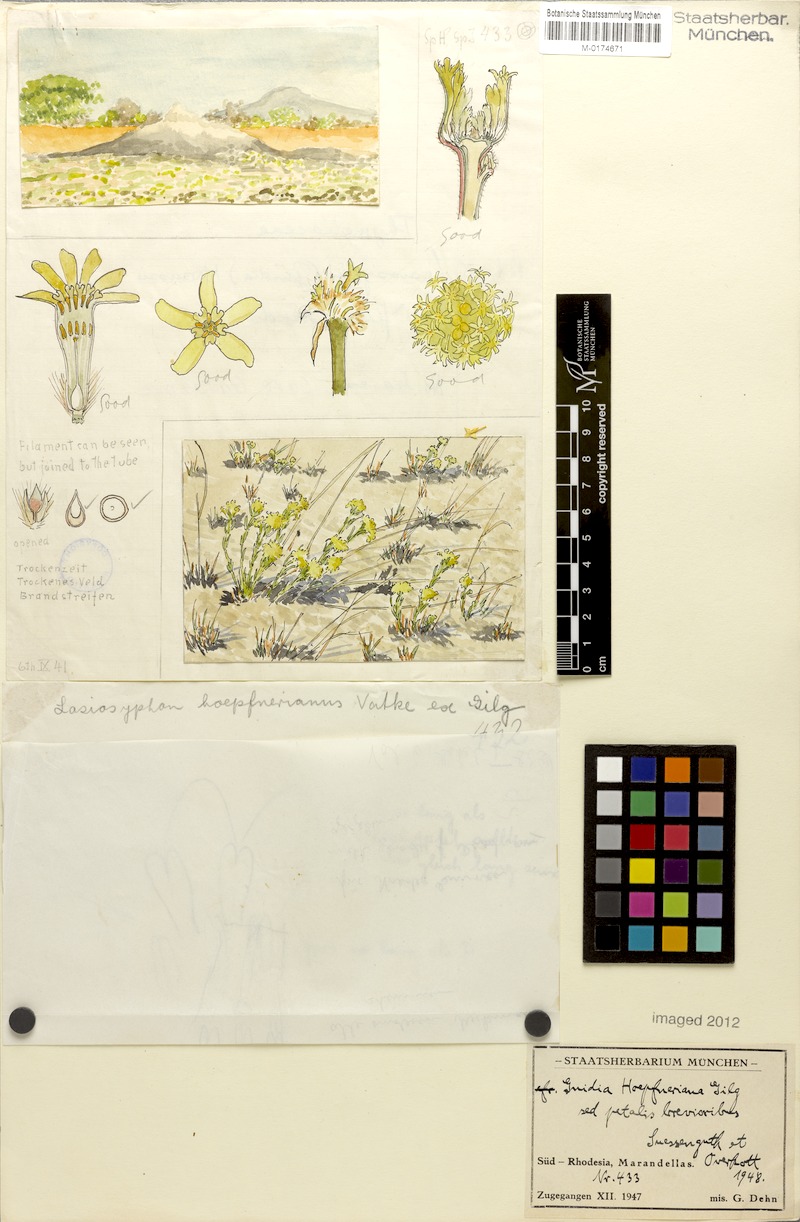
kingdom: Plantae
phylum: Tracheophyta
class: Magnoliopsida
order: Malvales
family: Thymelaeaceae
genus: Gnidia
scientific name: Gnidia kraussiana
